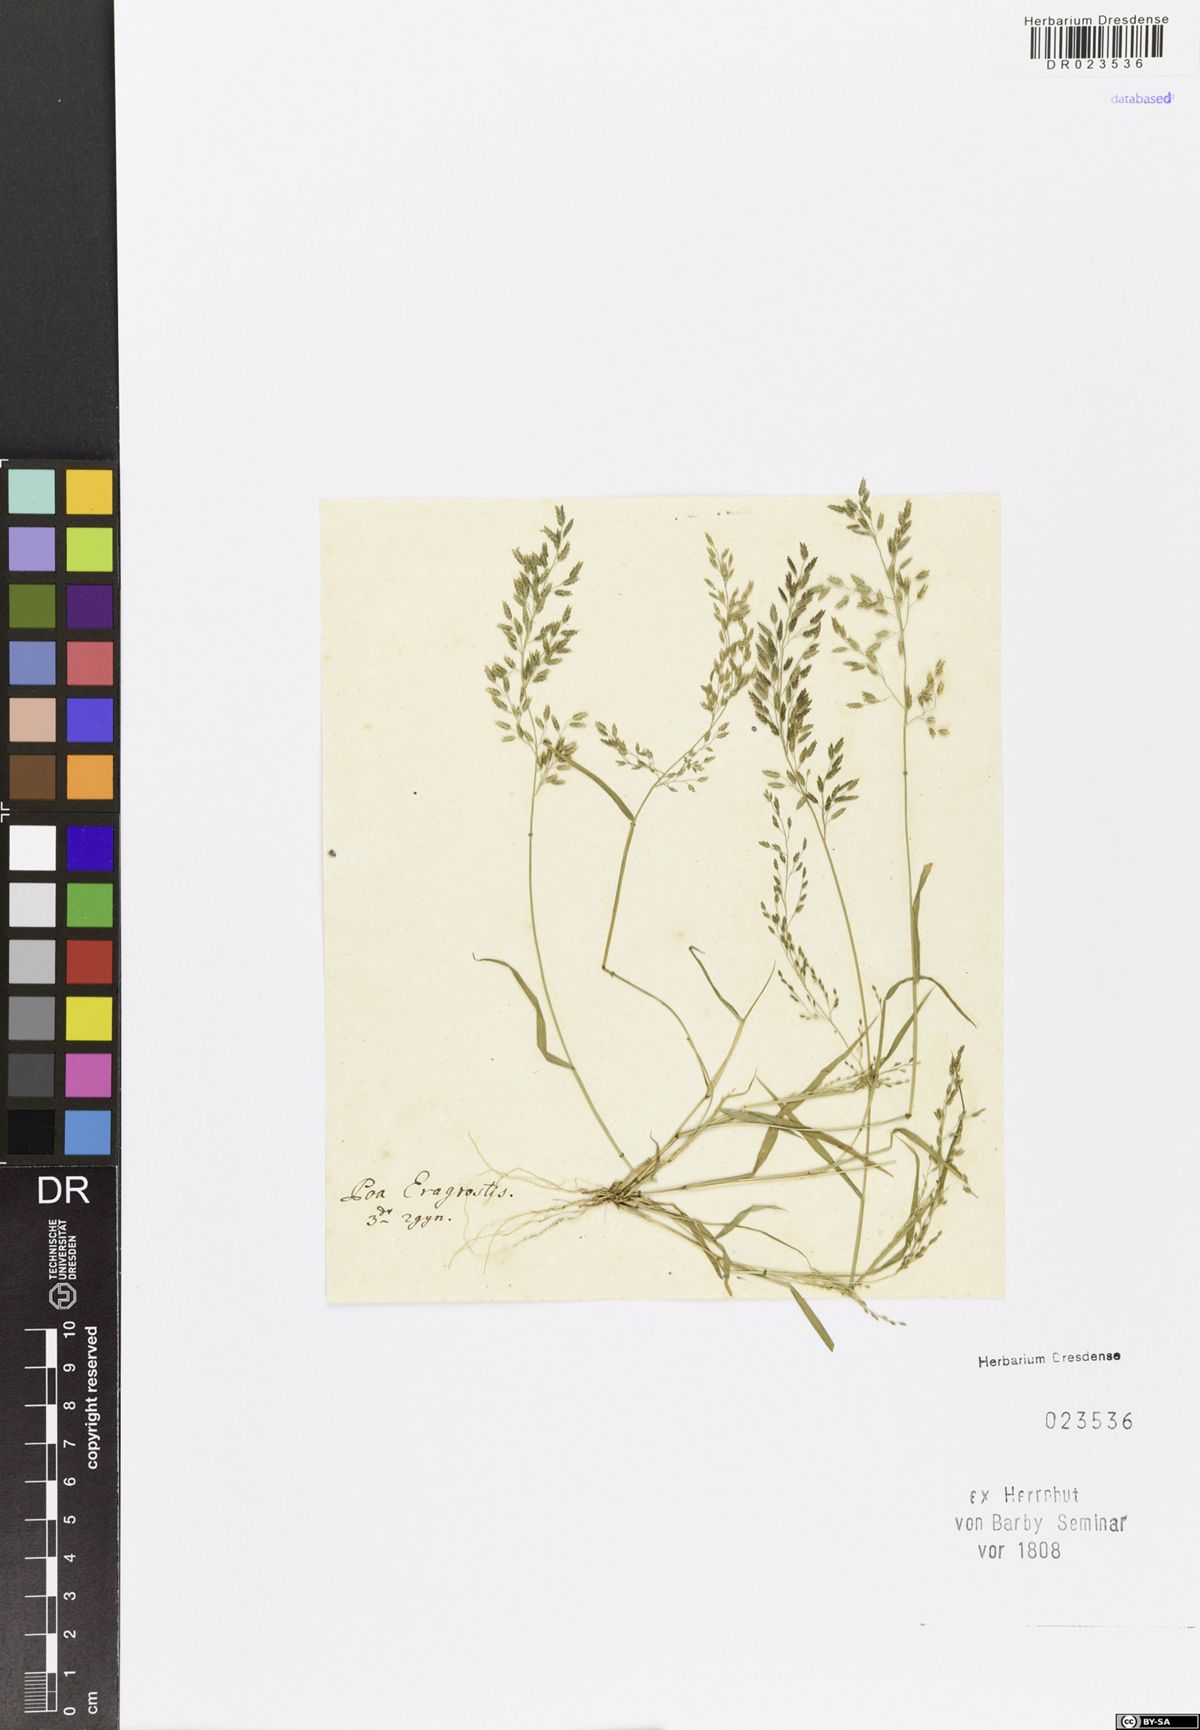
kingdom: Plantae
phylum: Tracheophyta
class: Liliopsida
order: Poales
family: Poaceae
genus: Eragrostis
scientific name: Eragrostis minor
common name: Small love-grass
